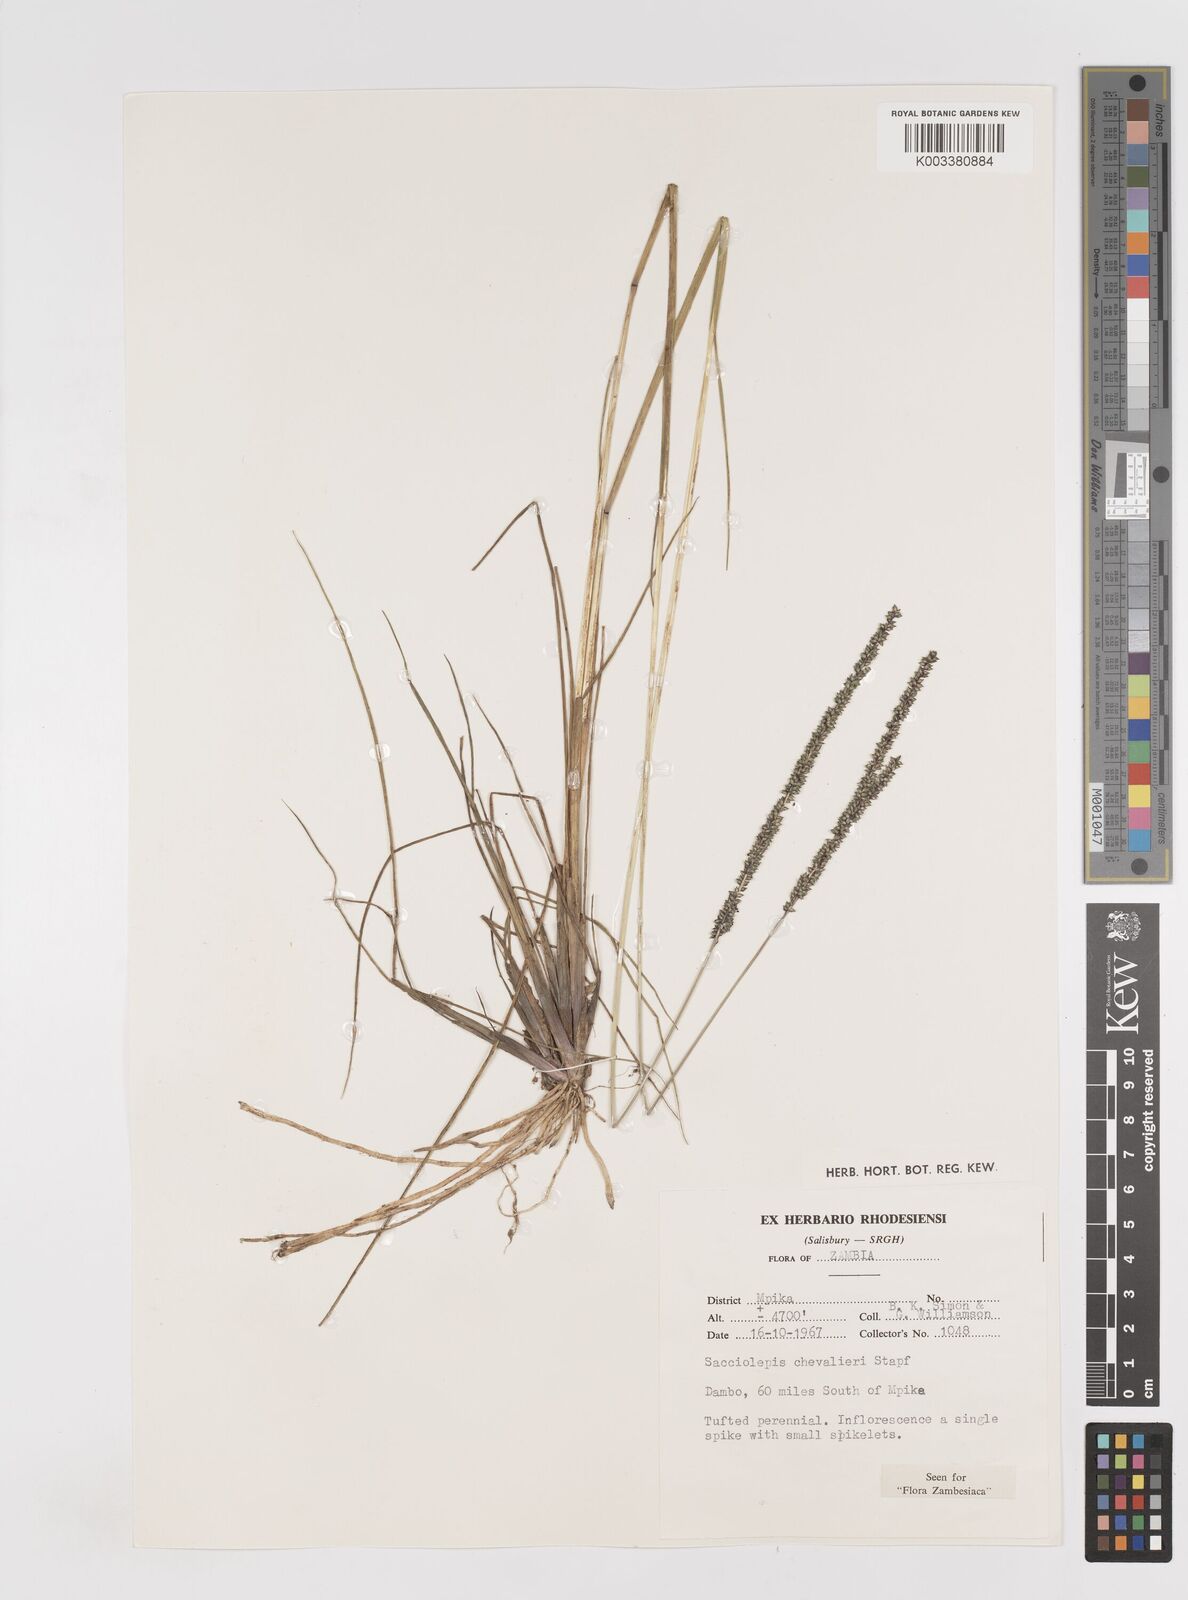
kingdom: Plantae
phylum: Tracheophyta
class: Liliopsida
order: Poales
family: Poaceae
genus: Sacciolepis
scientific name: Sacciolepis chevalieri
